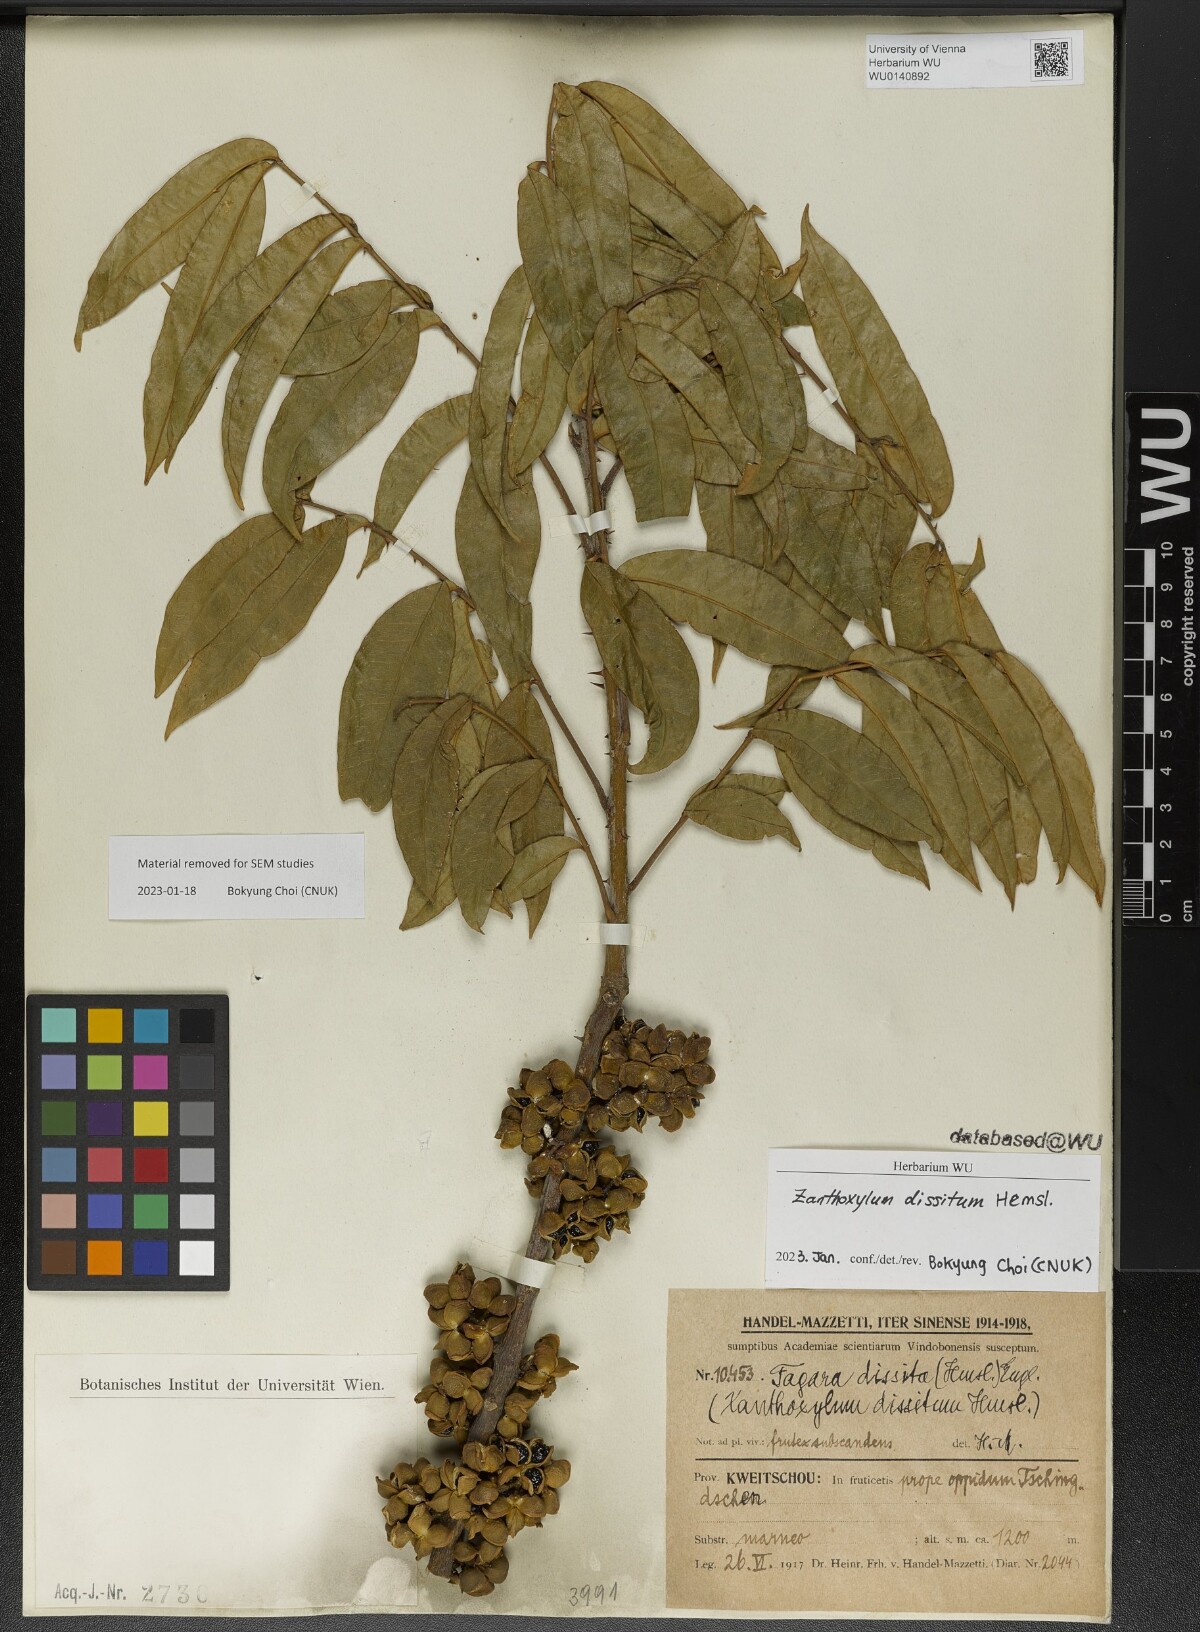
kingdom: Plantae
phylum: Tracheophyta
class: Magnoliopsida
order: Sapindales
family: Rutaceae
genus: Zanthoxylum
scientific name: Zanthoxylum dissitum
